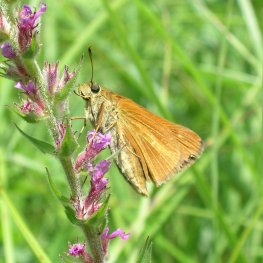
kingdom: Animalia
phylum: Arthropoda
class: Insecta
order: Lepidoptera
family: Hesperiidae
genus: Euphyes
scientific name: Euphyes dion
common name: Dion Skipper
